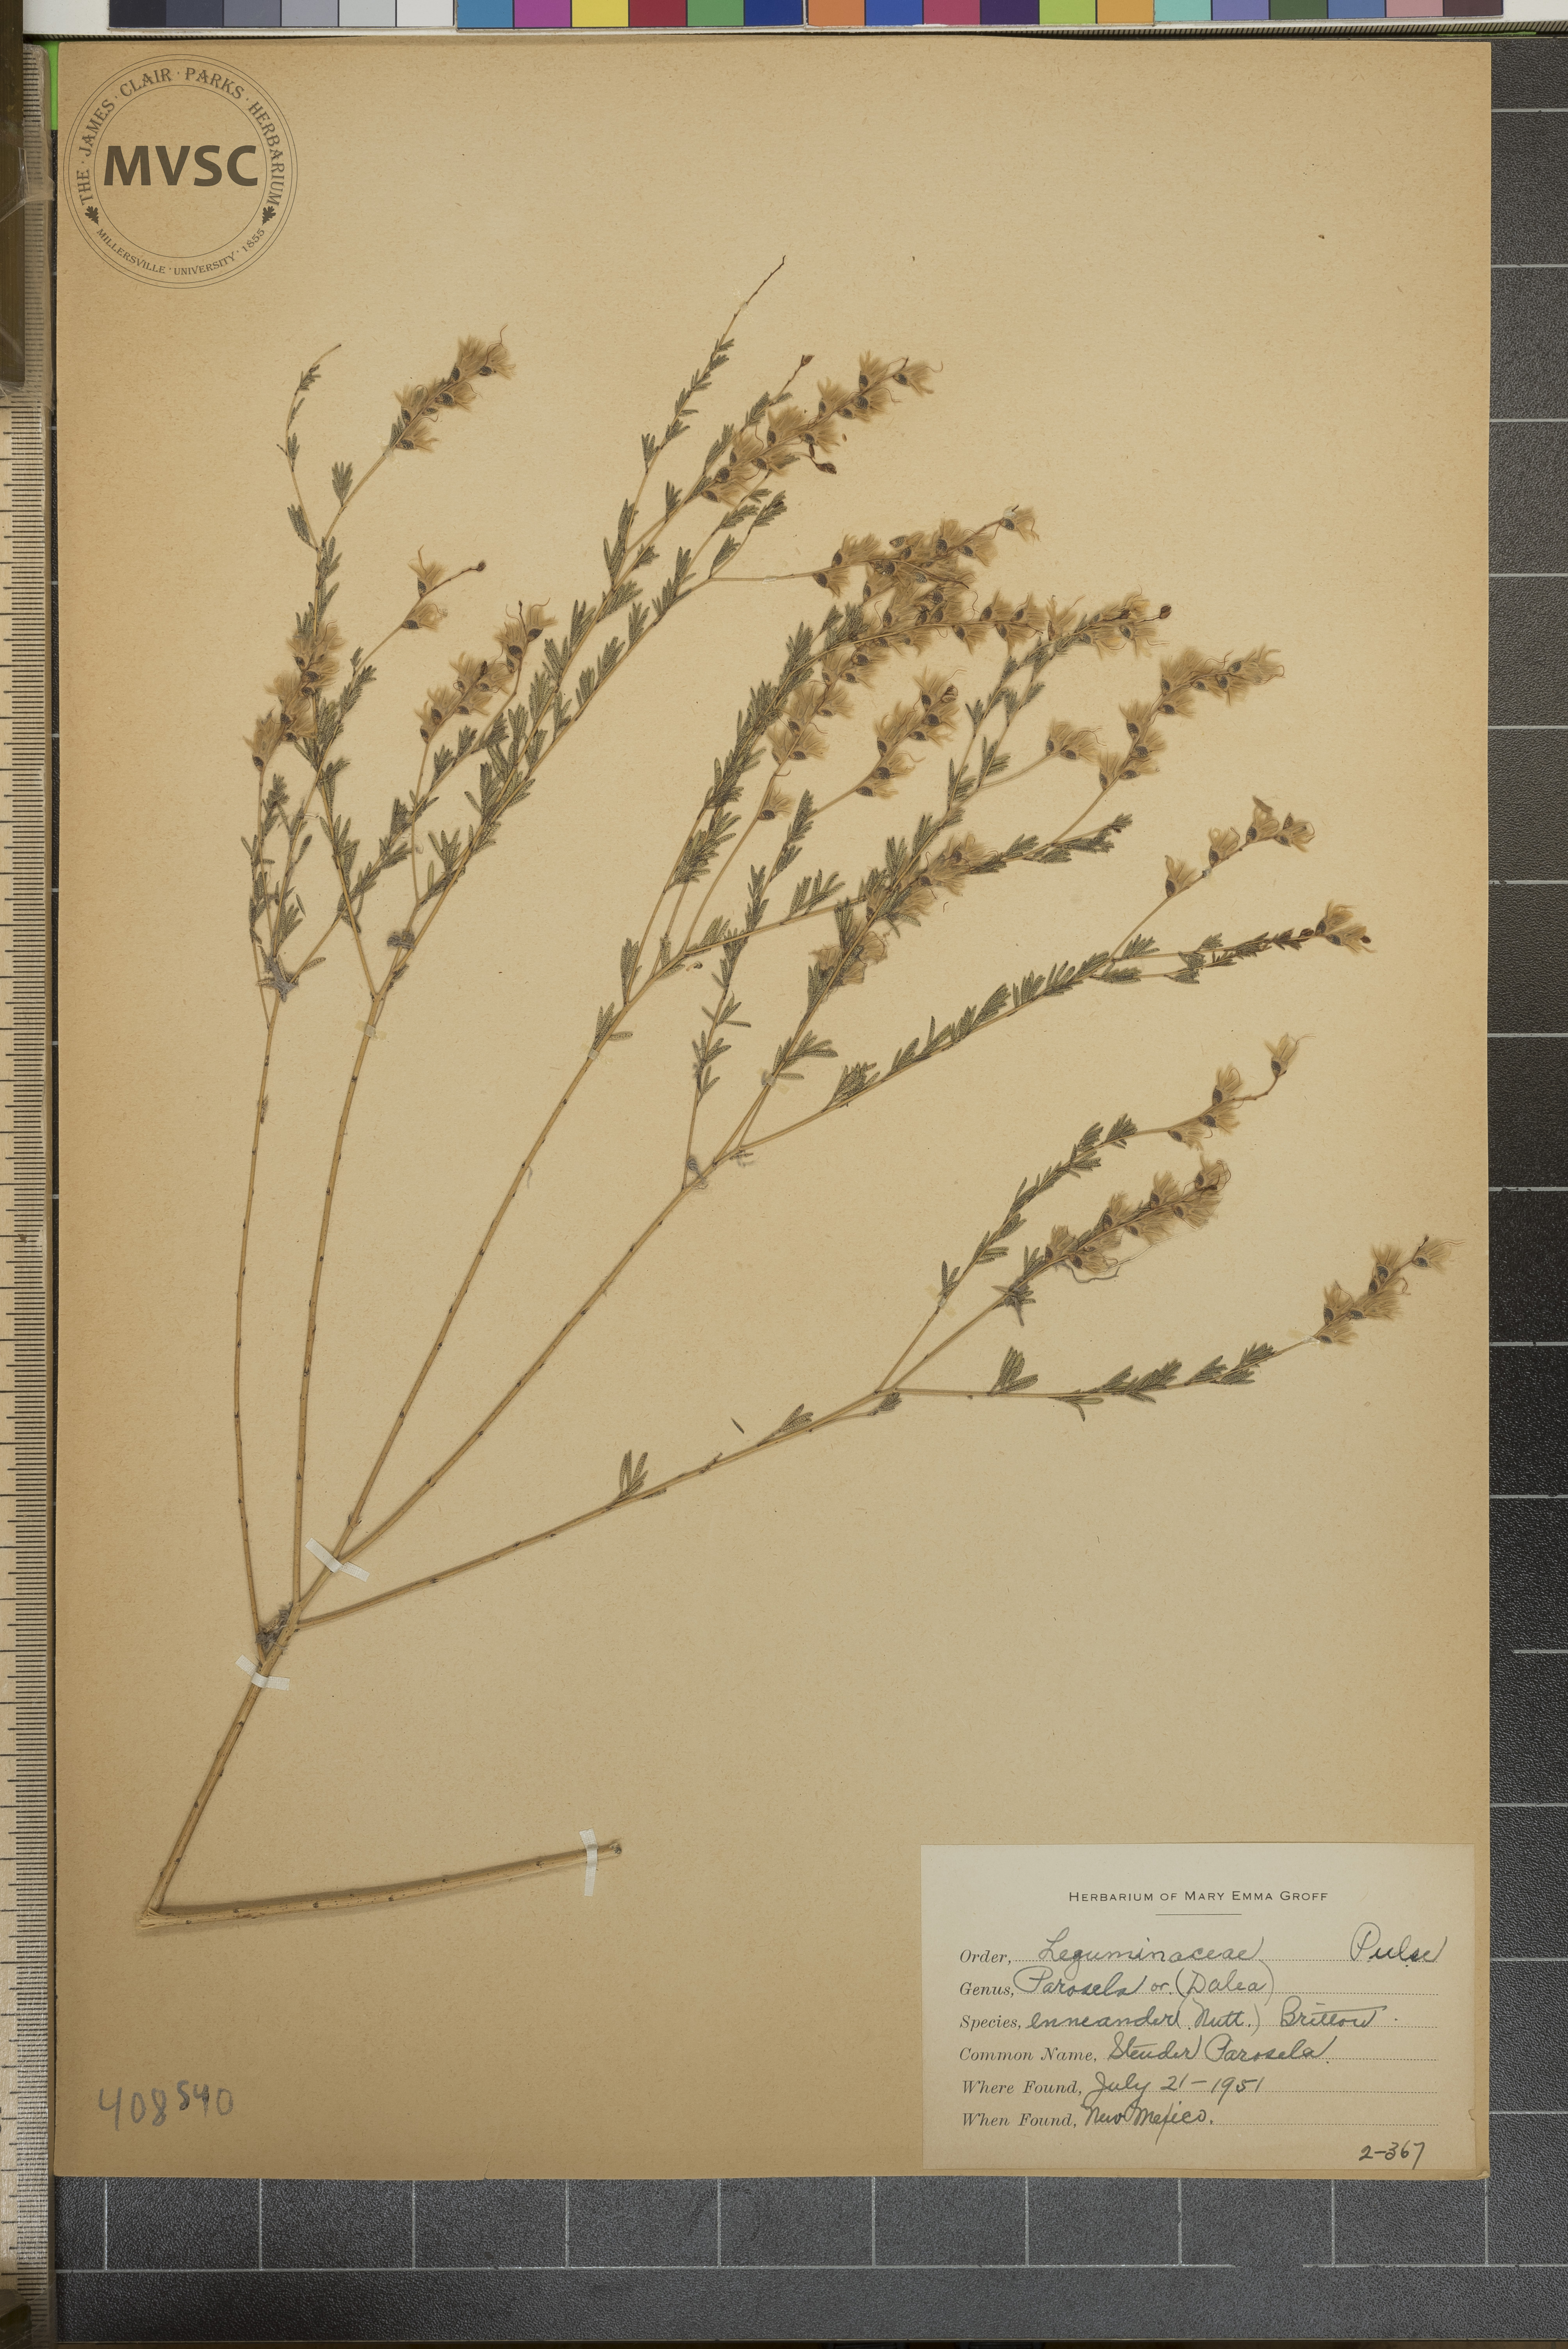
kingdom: Plantae
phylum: Tracheophyta
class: Magnoliopsida
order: Fabales
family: Fabaceae
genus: Dalea
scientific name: Dalea enneandra
